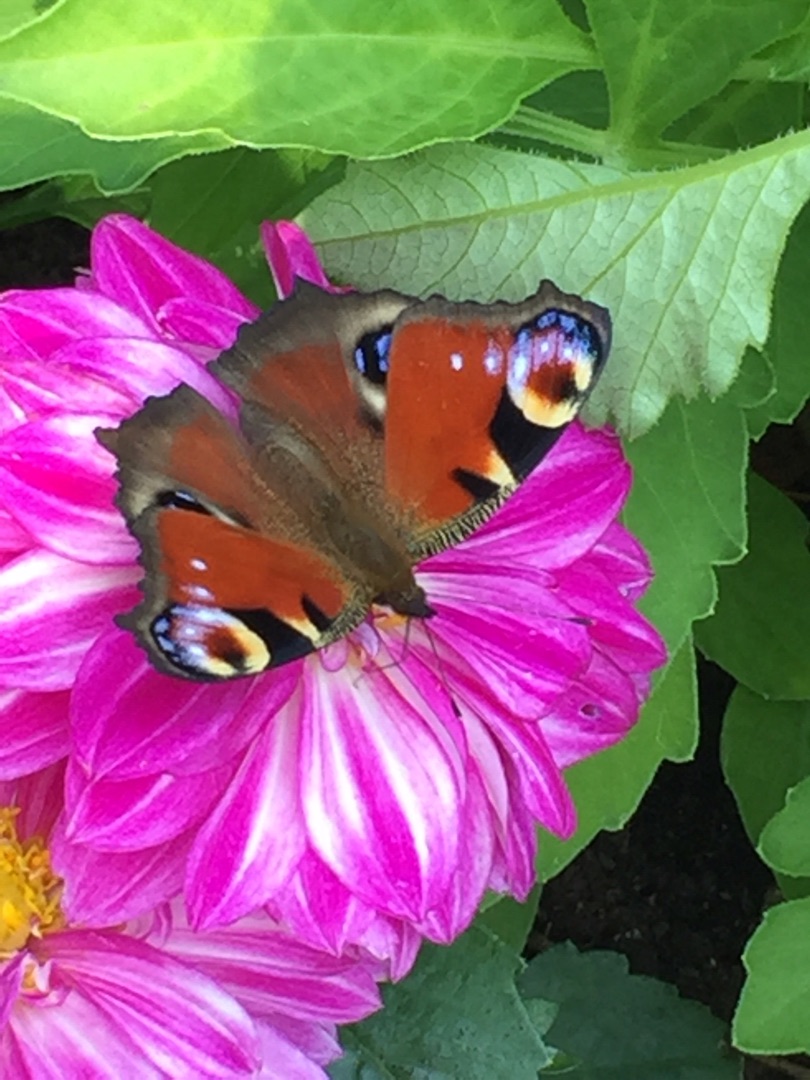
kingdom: Animalia
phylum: Arthropoda
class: Insecta
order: Lepidoptera
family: Nymphalidae
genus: Aglais
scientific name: Aglais io
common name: Dagpåfugleøje
